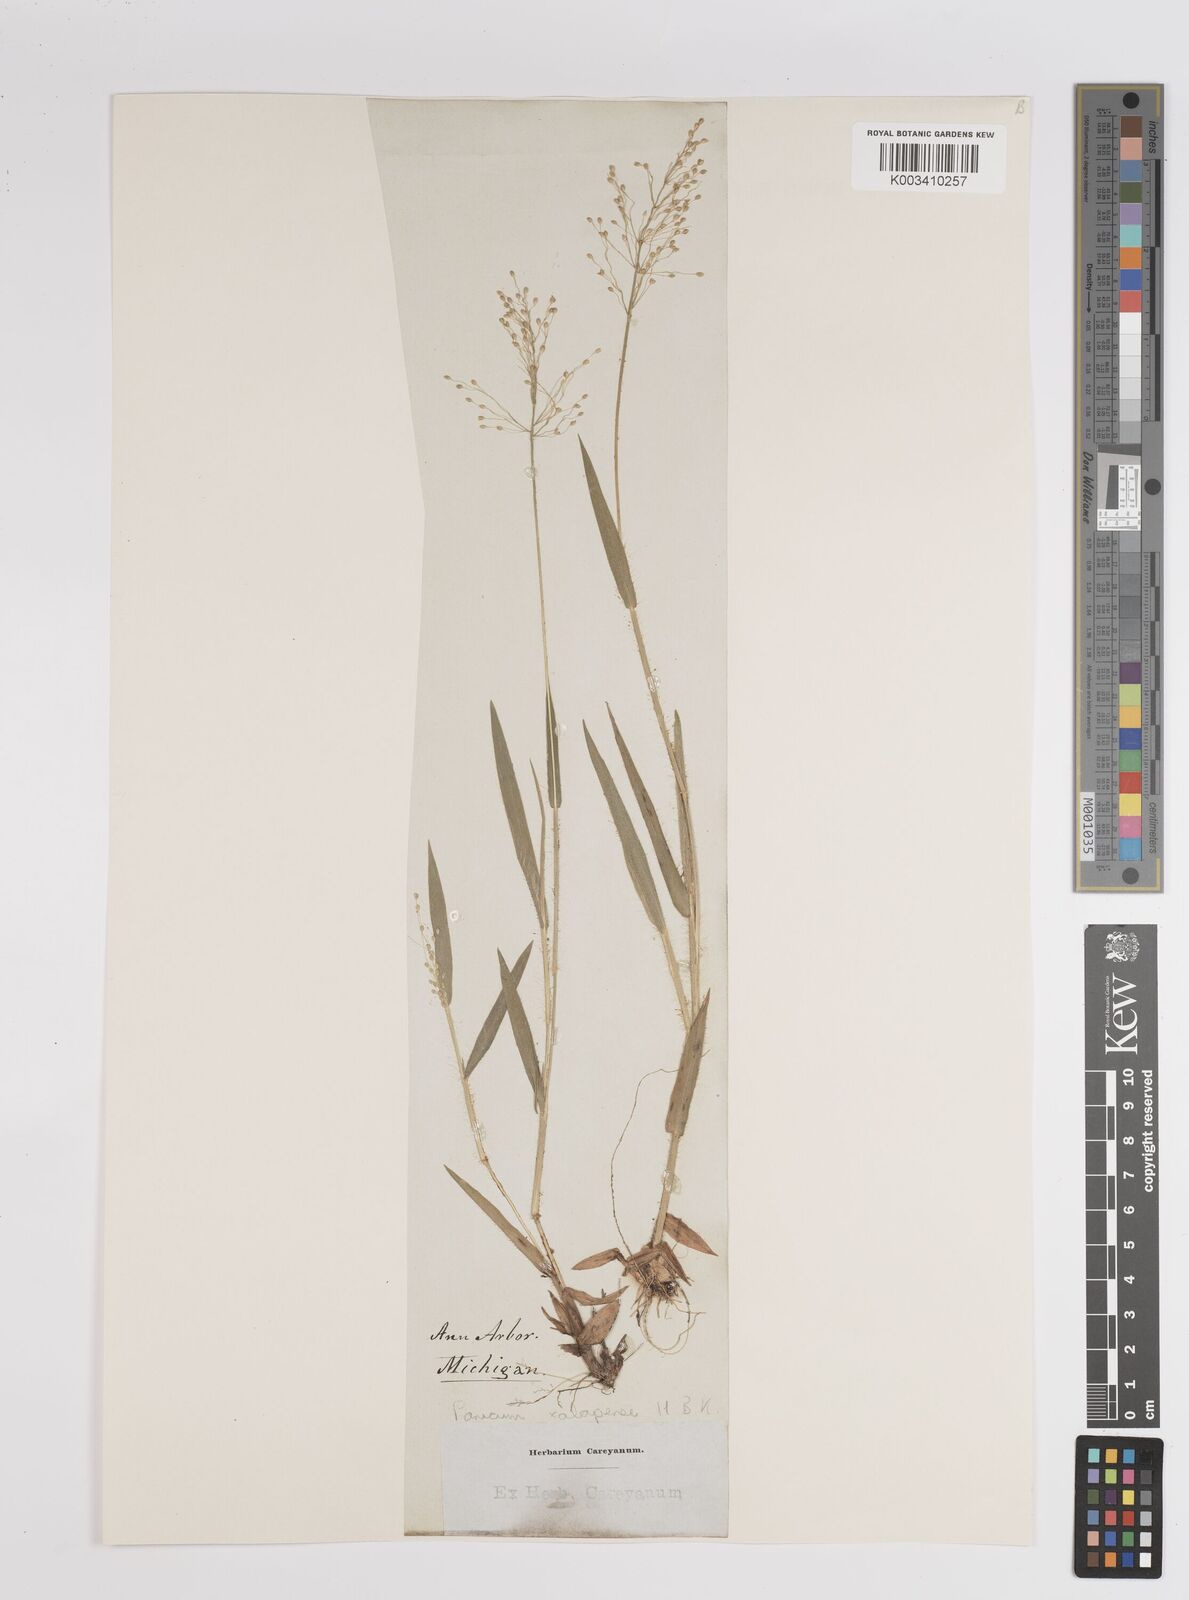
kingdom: Plantae
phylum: Tracheophyta
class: Liliopsida
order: Poales
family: Poaceae
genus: Dichanthelium
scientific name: Dichanthelium laxiflorum
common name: Soft-tuft panic grass
